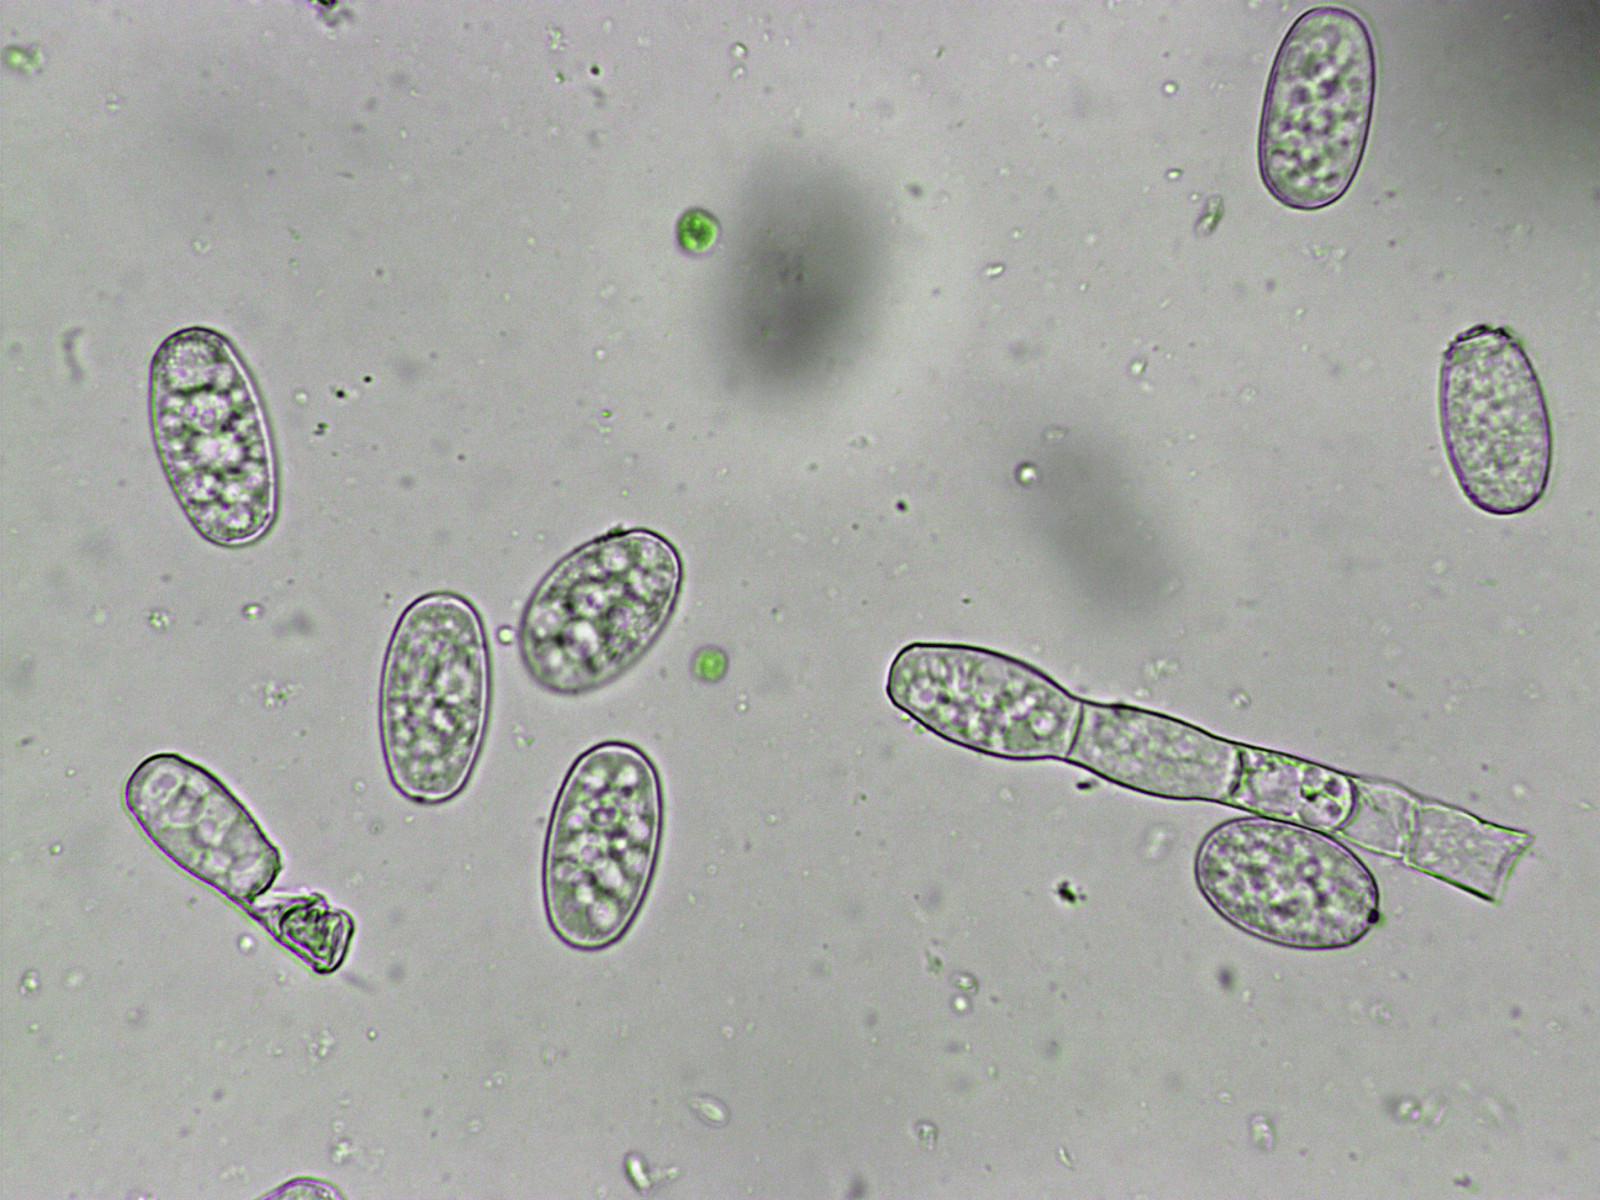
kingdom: Fungi
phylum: Ascomycota
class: Leotiomycetes
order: Helotiales
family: Erysiphaceae
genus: Golovinomyces
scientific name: Golovinomyces macrocarpus
